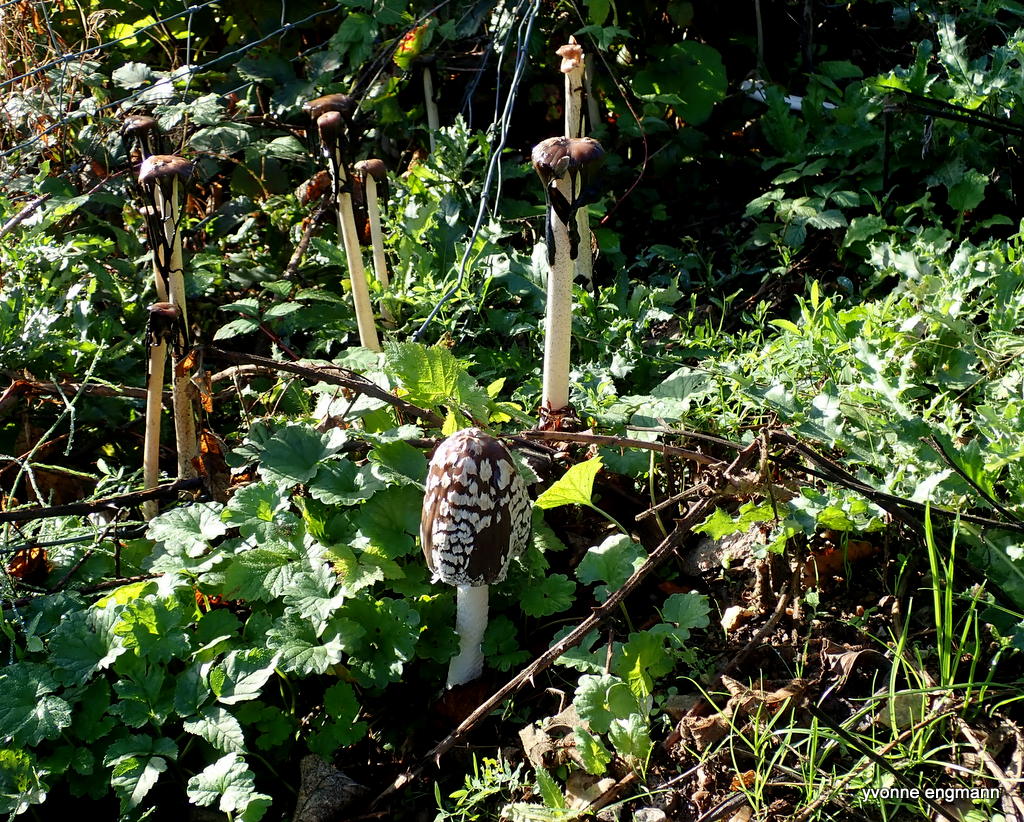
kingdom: Fungi
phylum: Basidiomycota
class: Agaricomycetes
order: Agaricales
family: Psathyrellaceae
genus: Coprinopsis
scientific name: Coprinopsis picacea
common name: skade-blækhat
